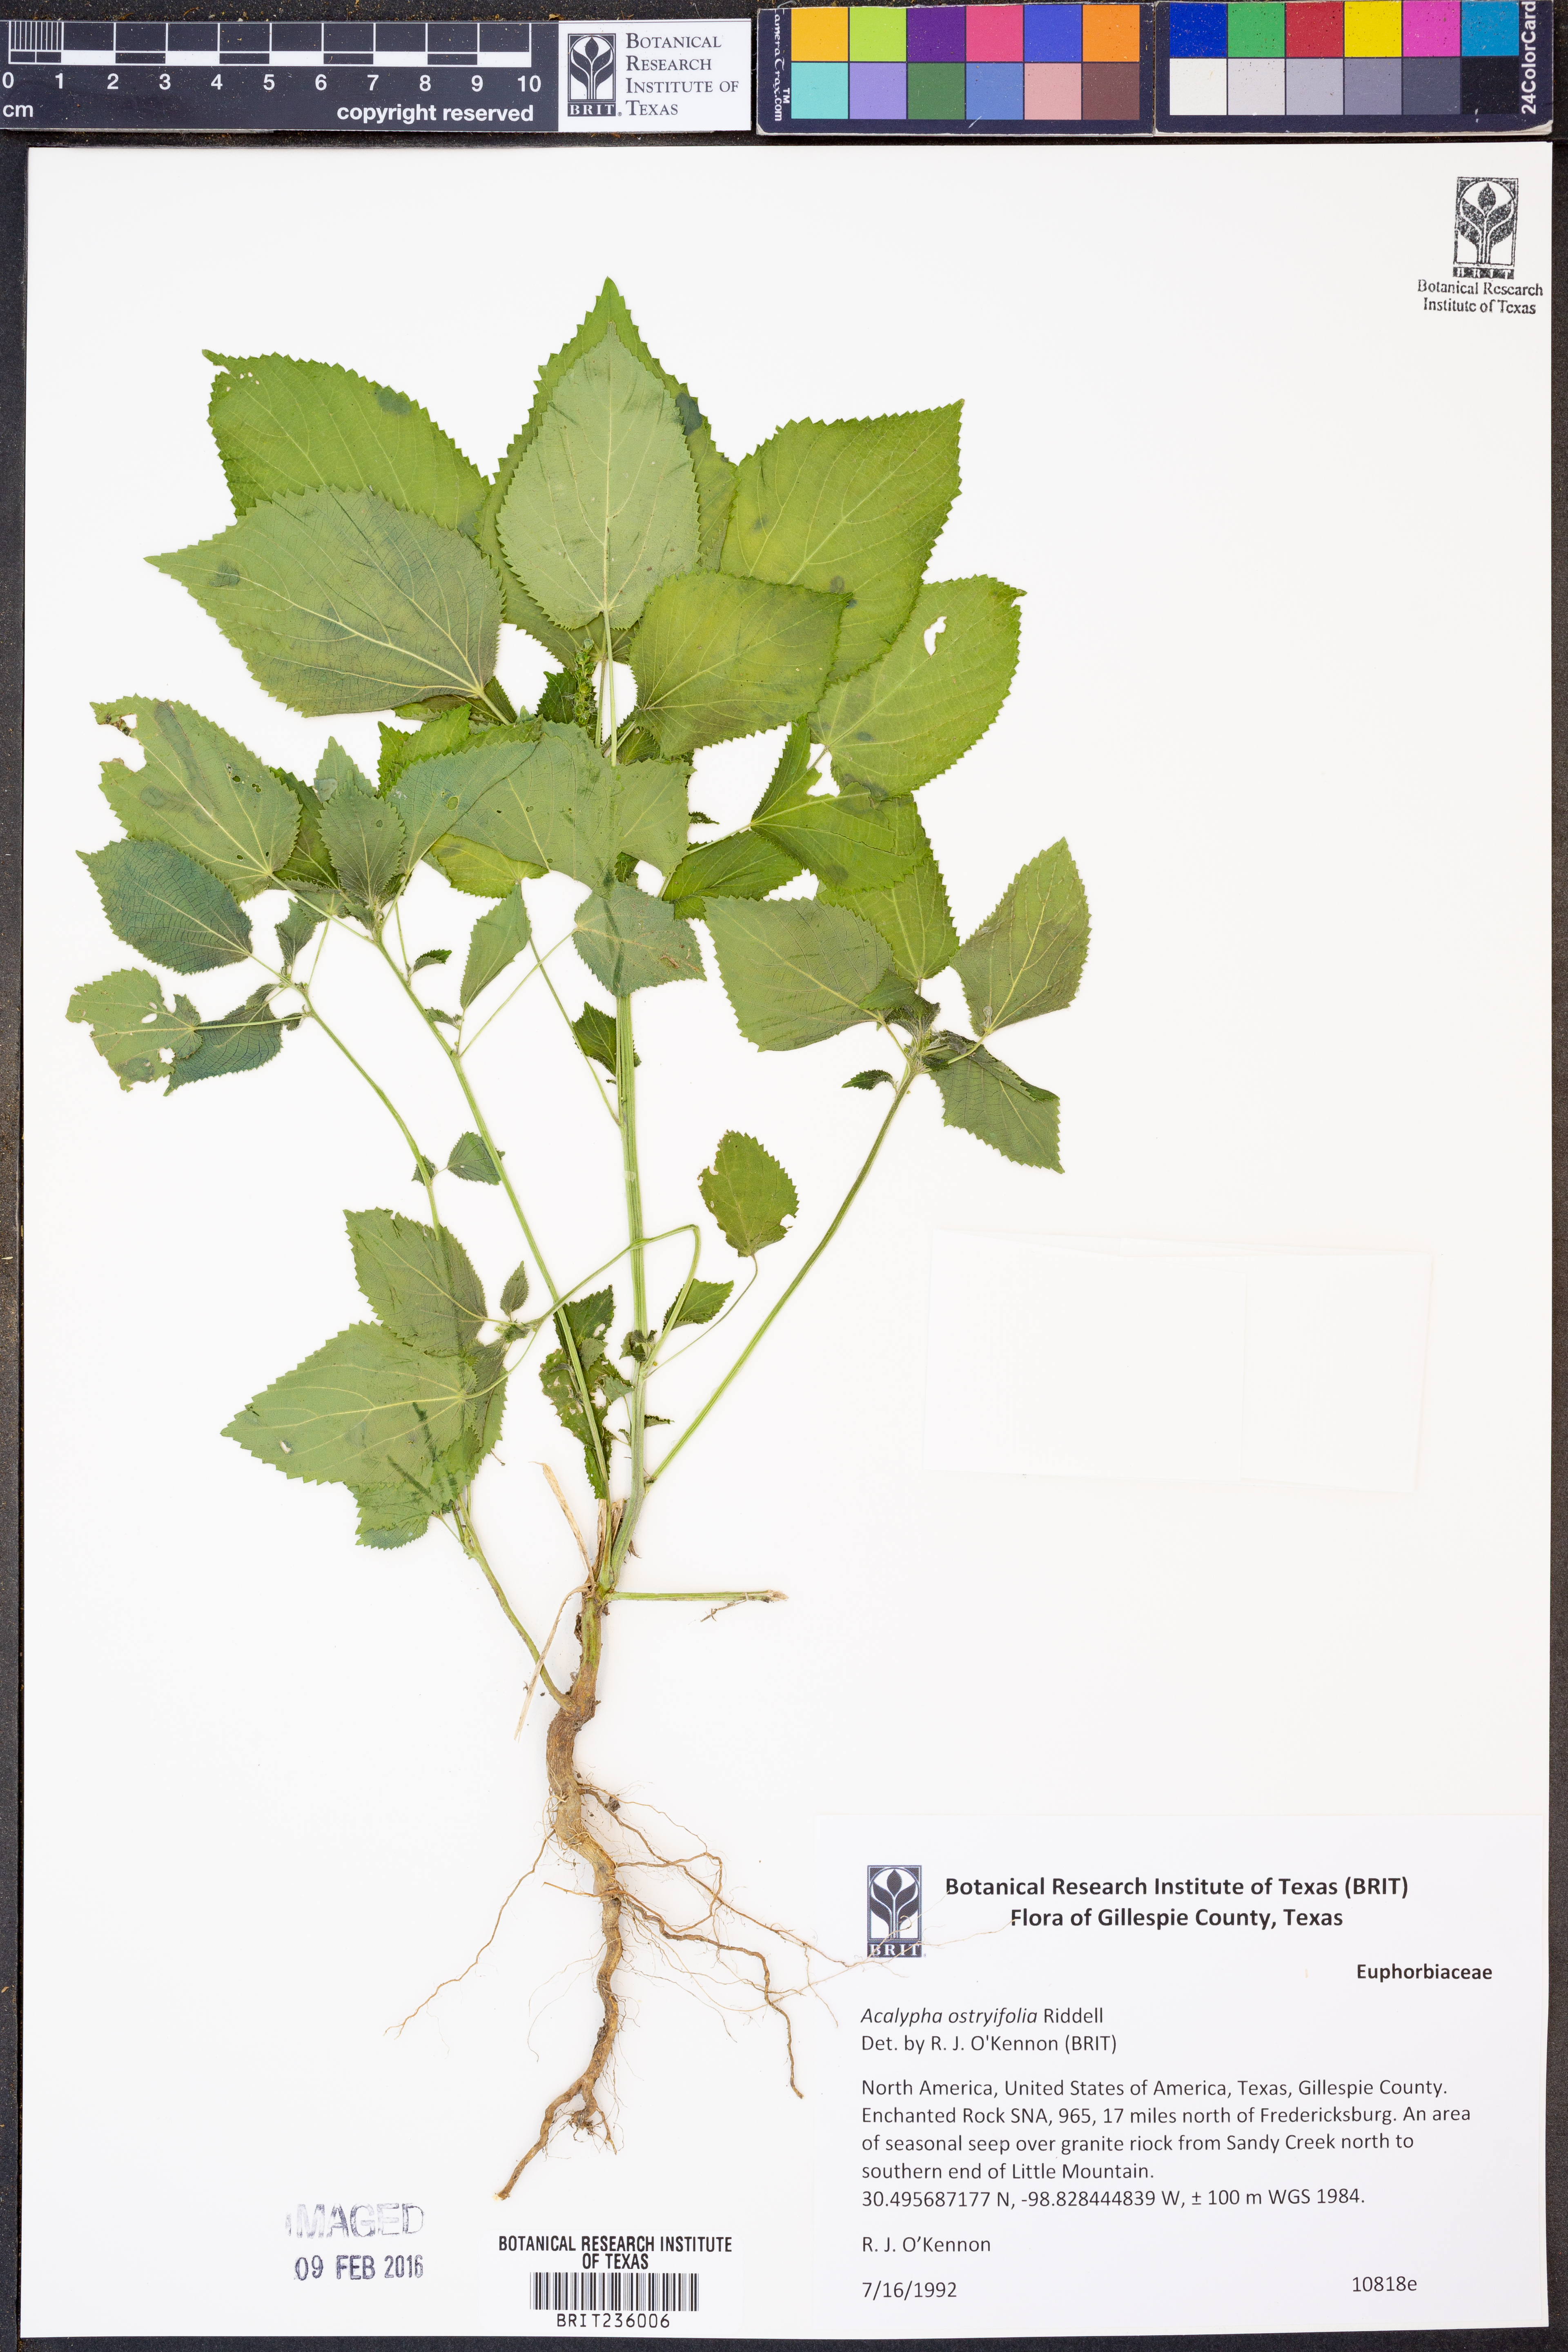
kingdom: Plantae
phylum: Tracheophyta
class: Magnoliopsida
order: Malpighiales
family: Euphorbiaceae
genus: Acalypha
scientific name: Acalypha persimilis
